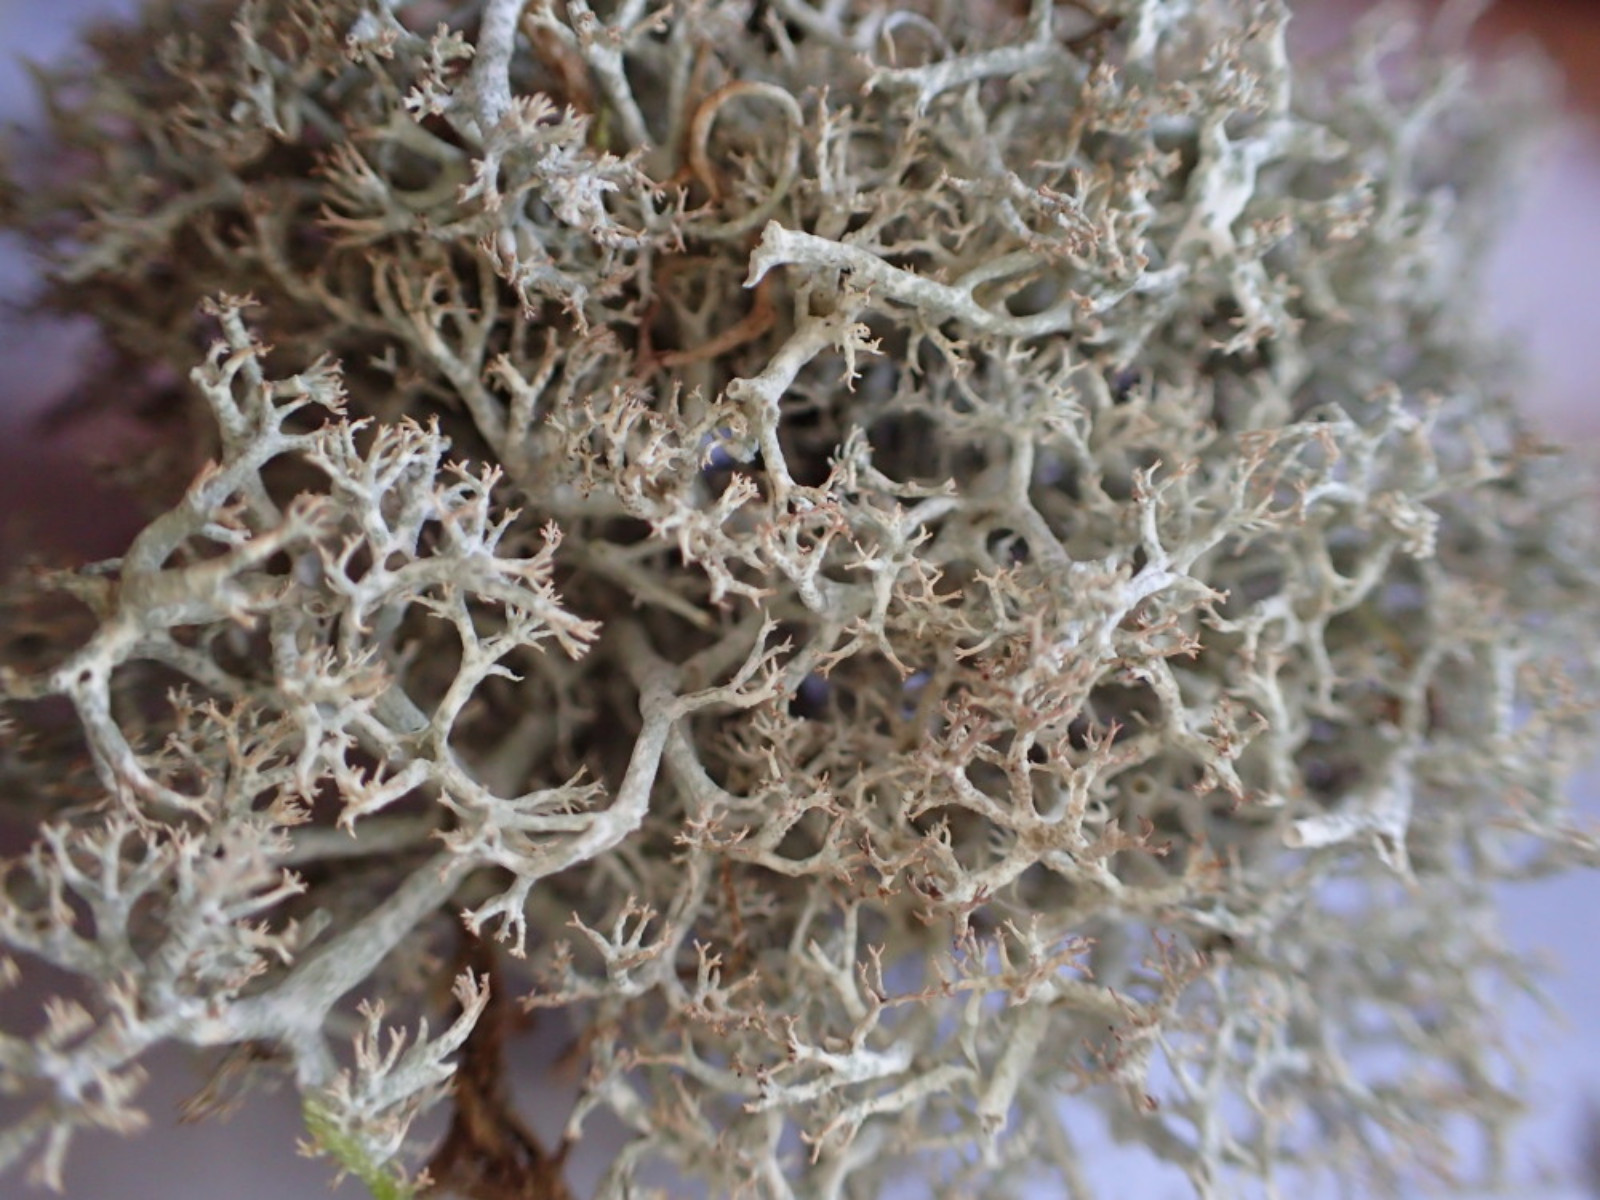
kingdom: Fungi
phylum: Ascomycota
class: Lecanoromycetes
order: Lecanorales
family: Cladoniaceae
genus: Cladonia
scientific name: Cladonia ciliata
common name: spinkel rensdyrlav
